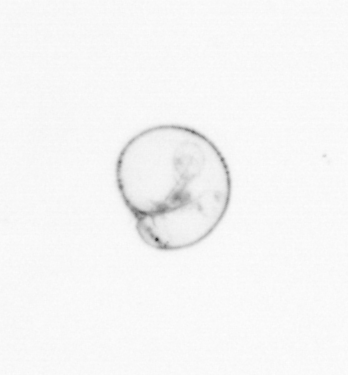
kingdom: Chromista
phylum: Myzozoa
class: Dinophyceae
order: Noctilucales
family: Noctilucaceae
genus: Noctiluca
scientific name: Noctiluca scintillans
